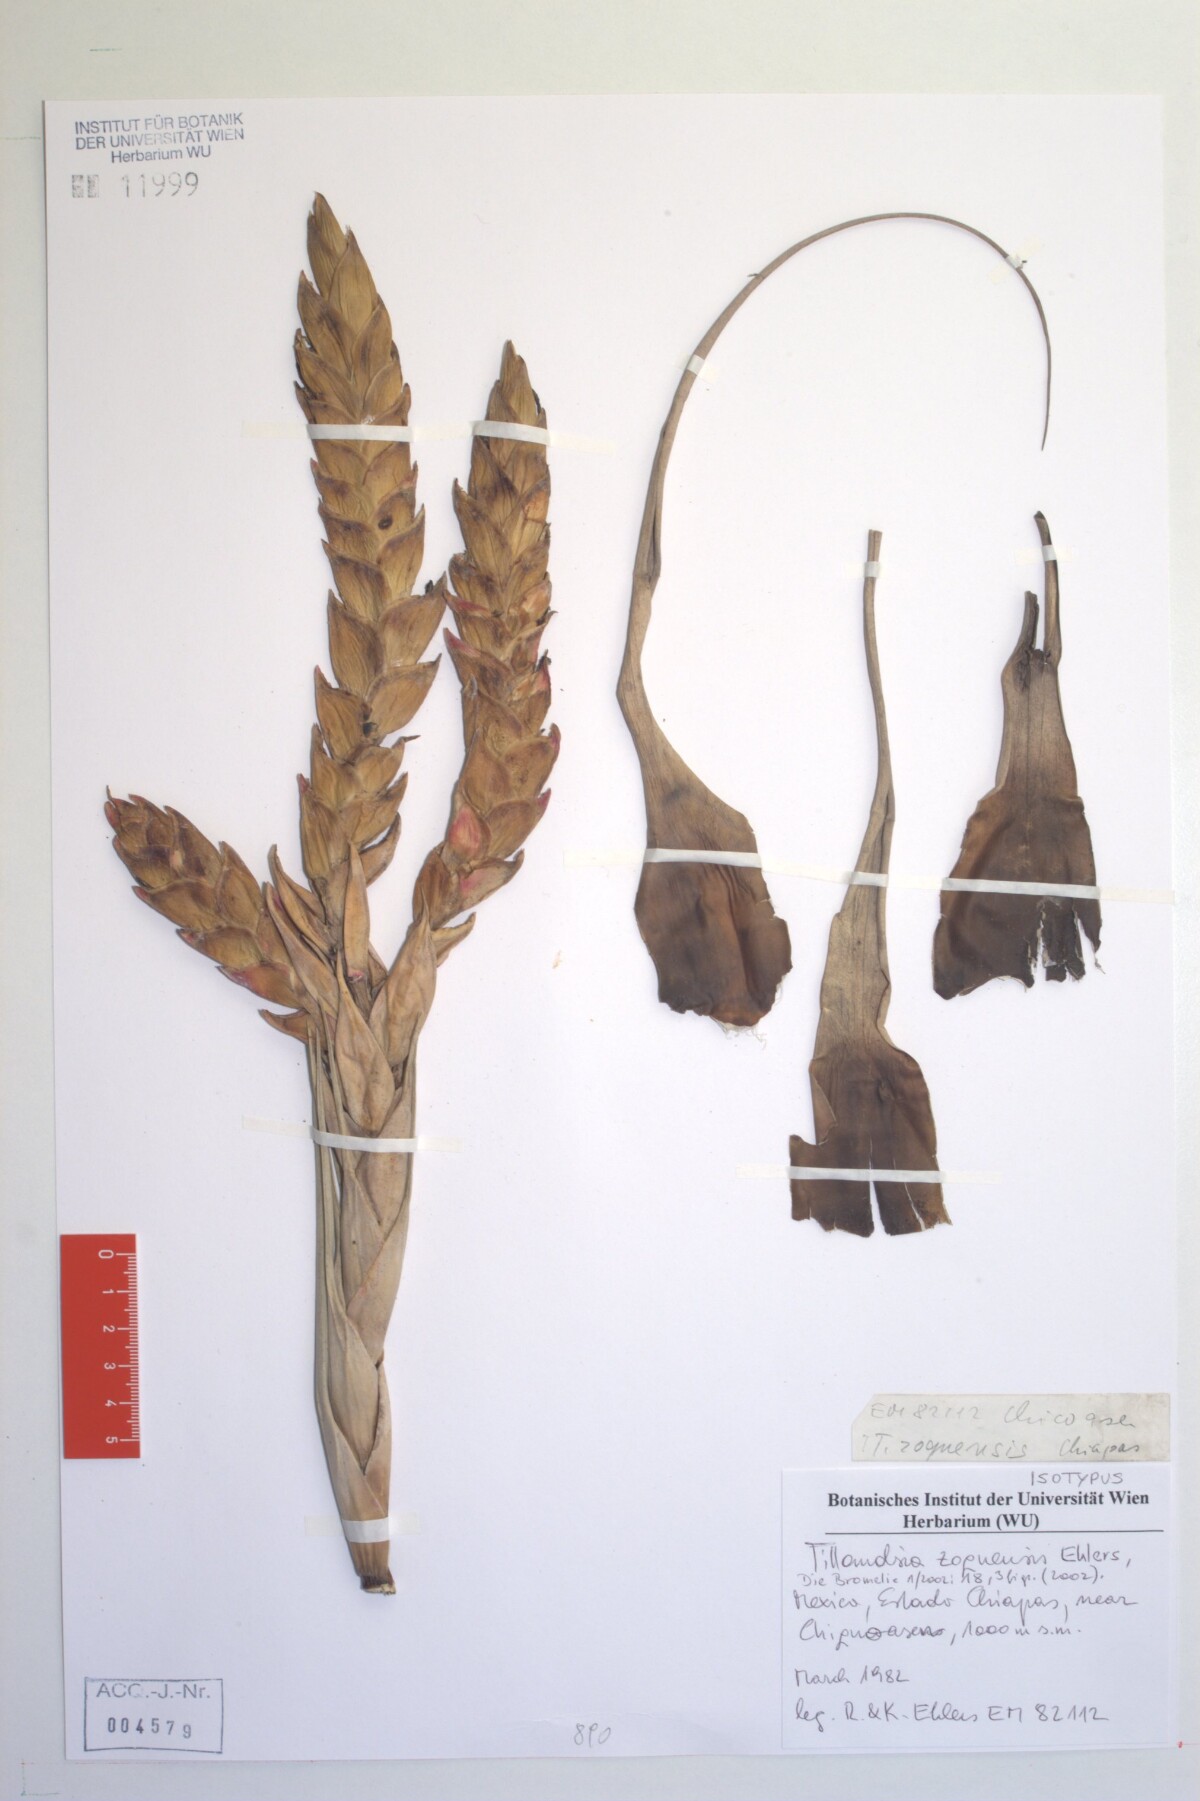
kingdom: Plantae
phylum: Tracheophyta
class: Liliopsida
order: Poales
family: Bromeliaceae
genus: Tillandsia
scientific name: Tillandsia zoquensis
